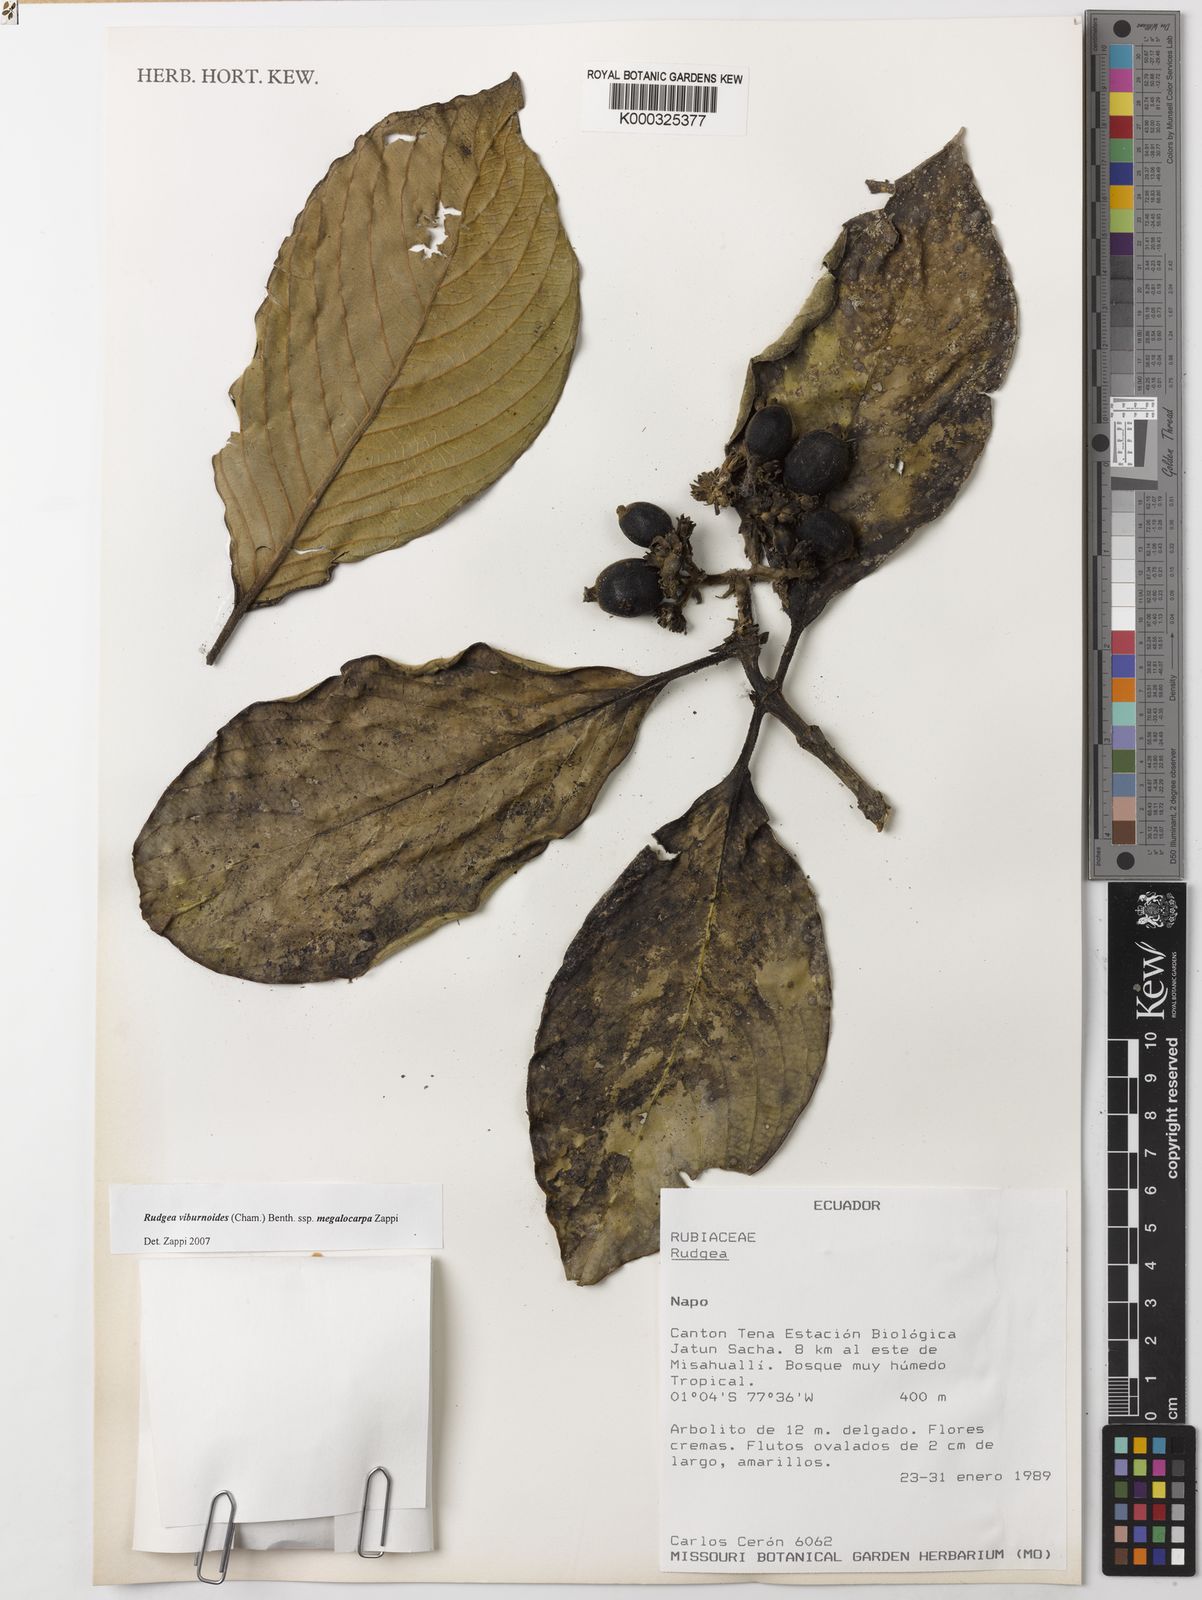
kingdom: Plantae
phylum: Tracheophyta
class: Magnoliopsida
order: Gentianales
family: Rubiaceae
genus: Rudgea
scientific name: Rudgea viburnoides
